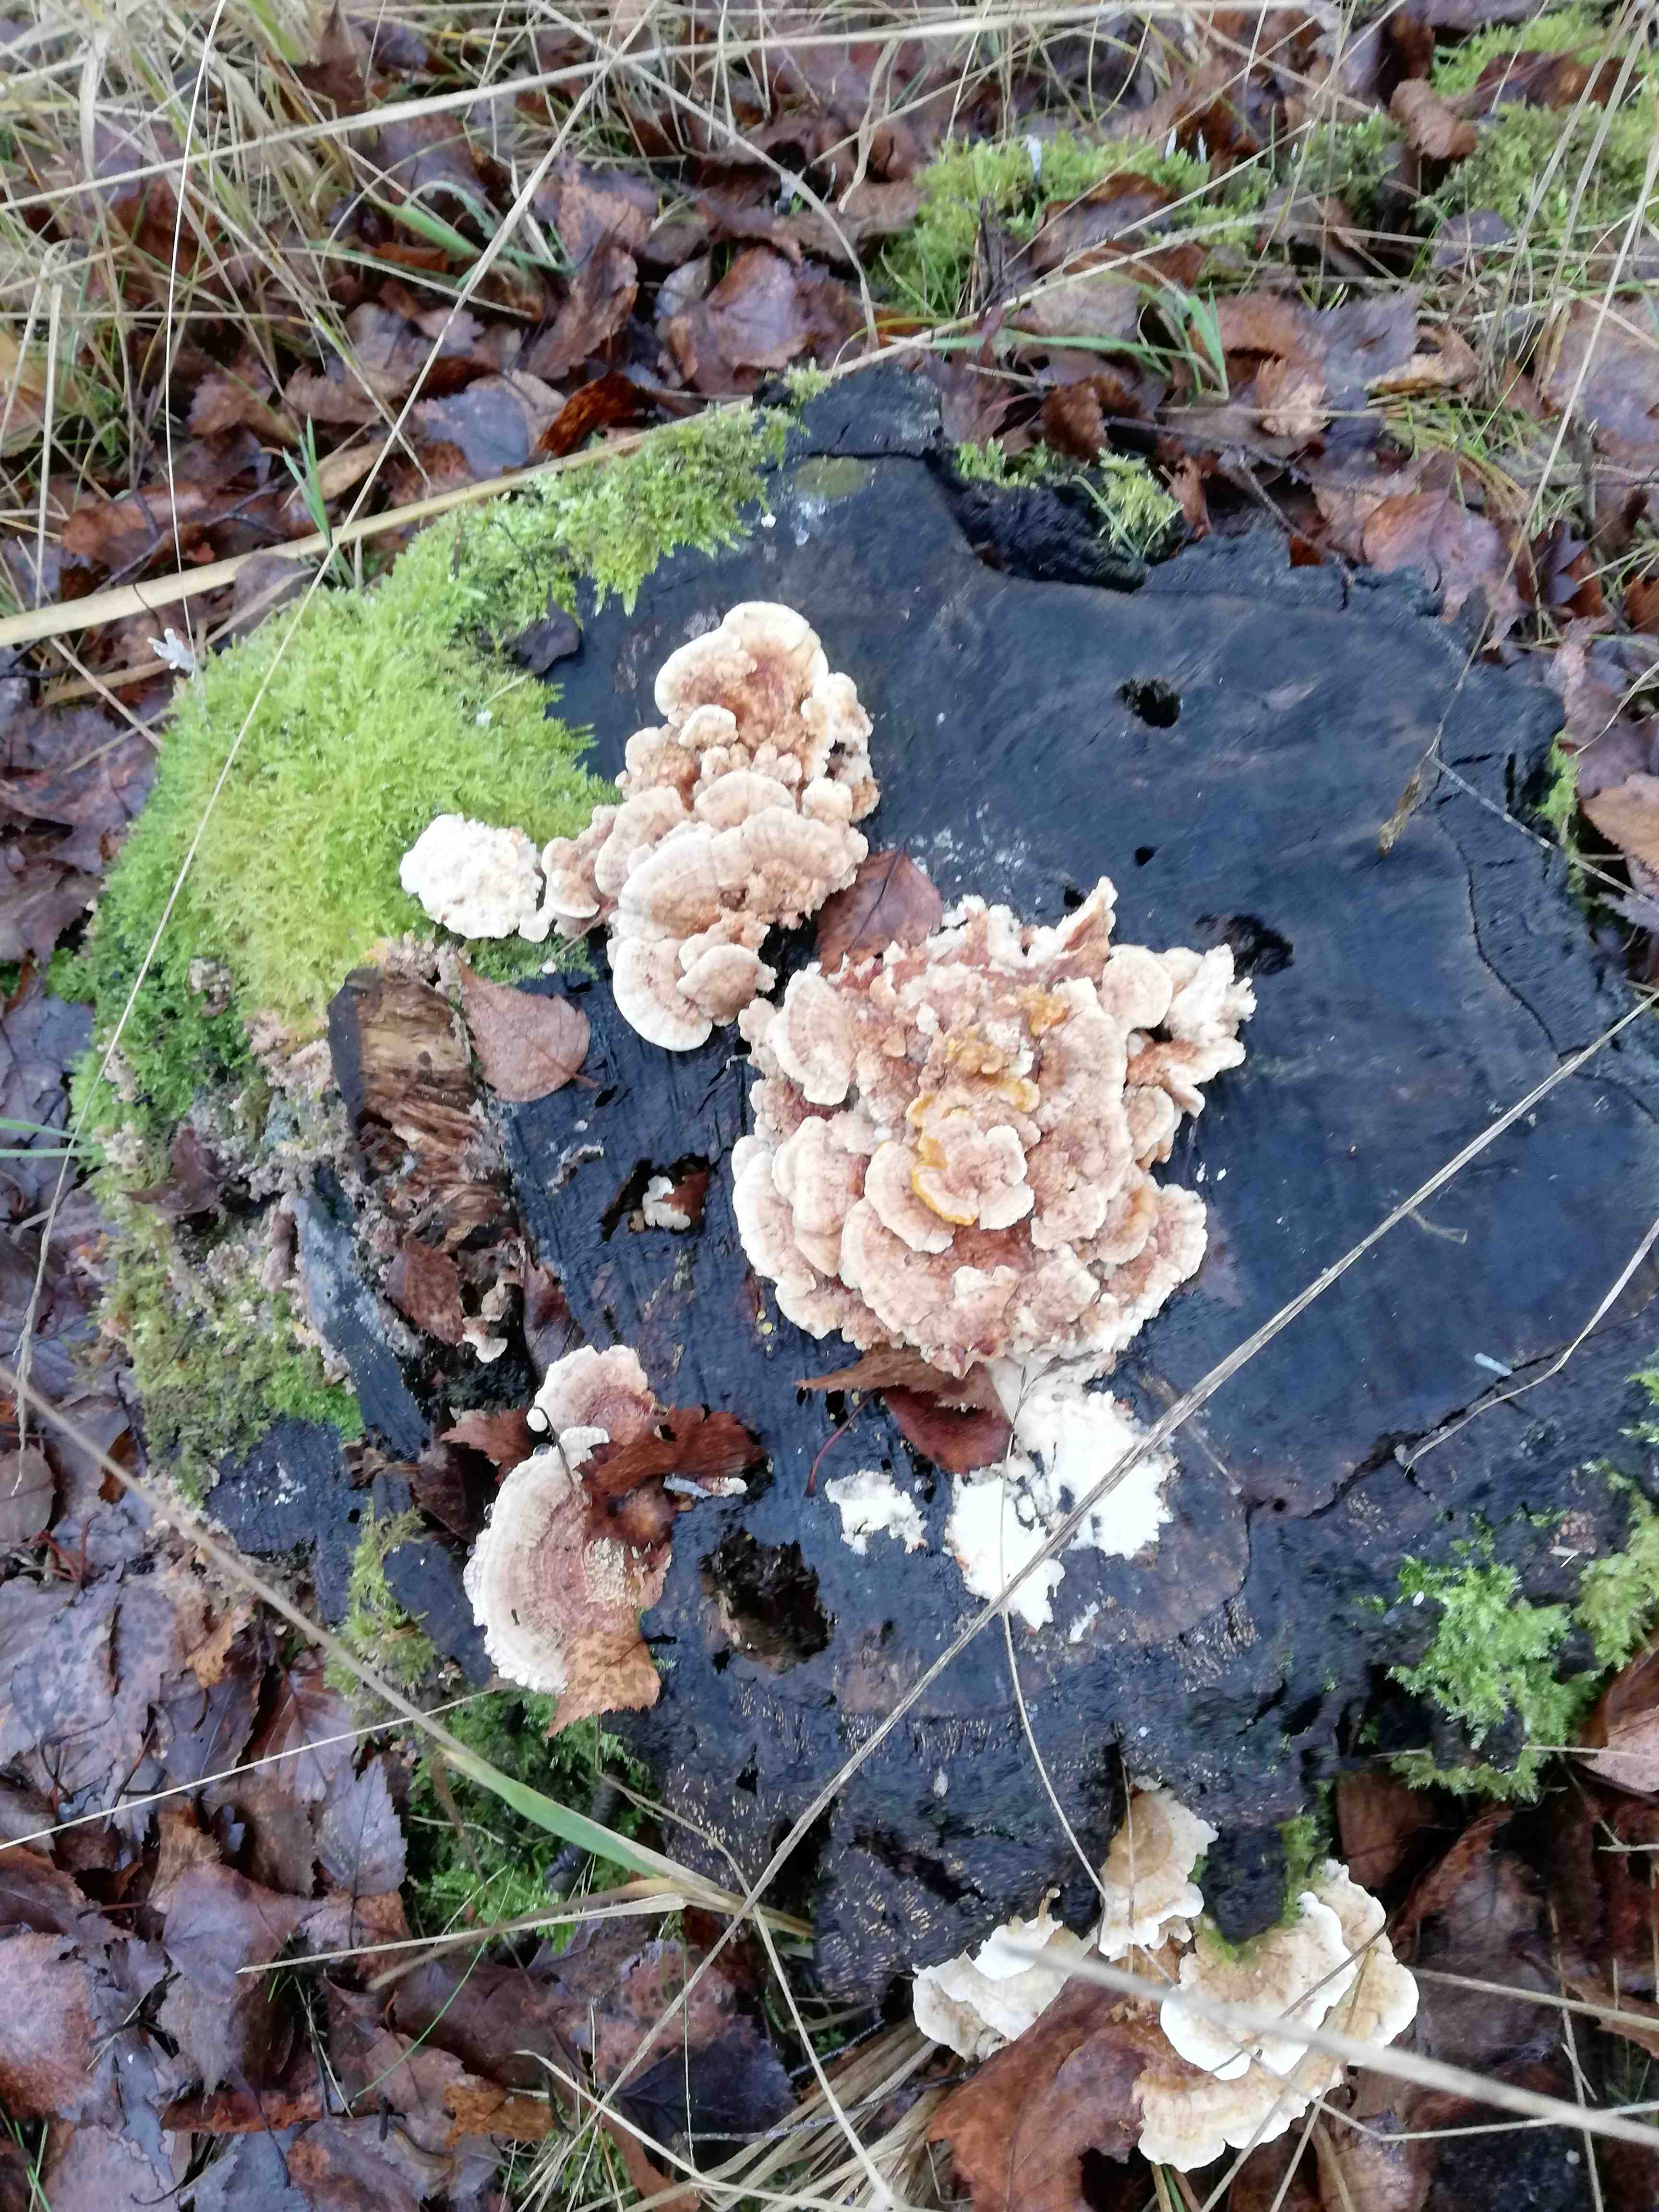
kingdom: Fungi
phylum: Basidiomycota
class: Agaricomycetes
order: Polyporales
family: Polyporaceae
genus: Trametes
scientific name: Trametes versicolor
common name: broget læderporesvamp
